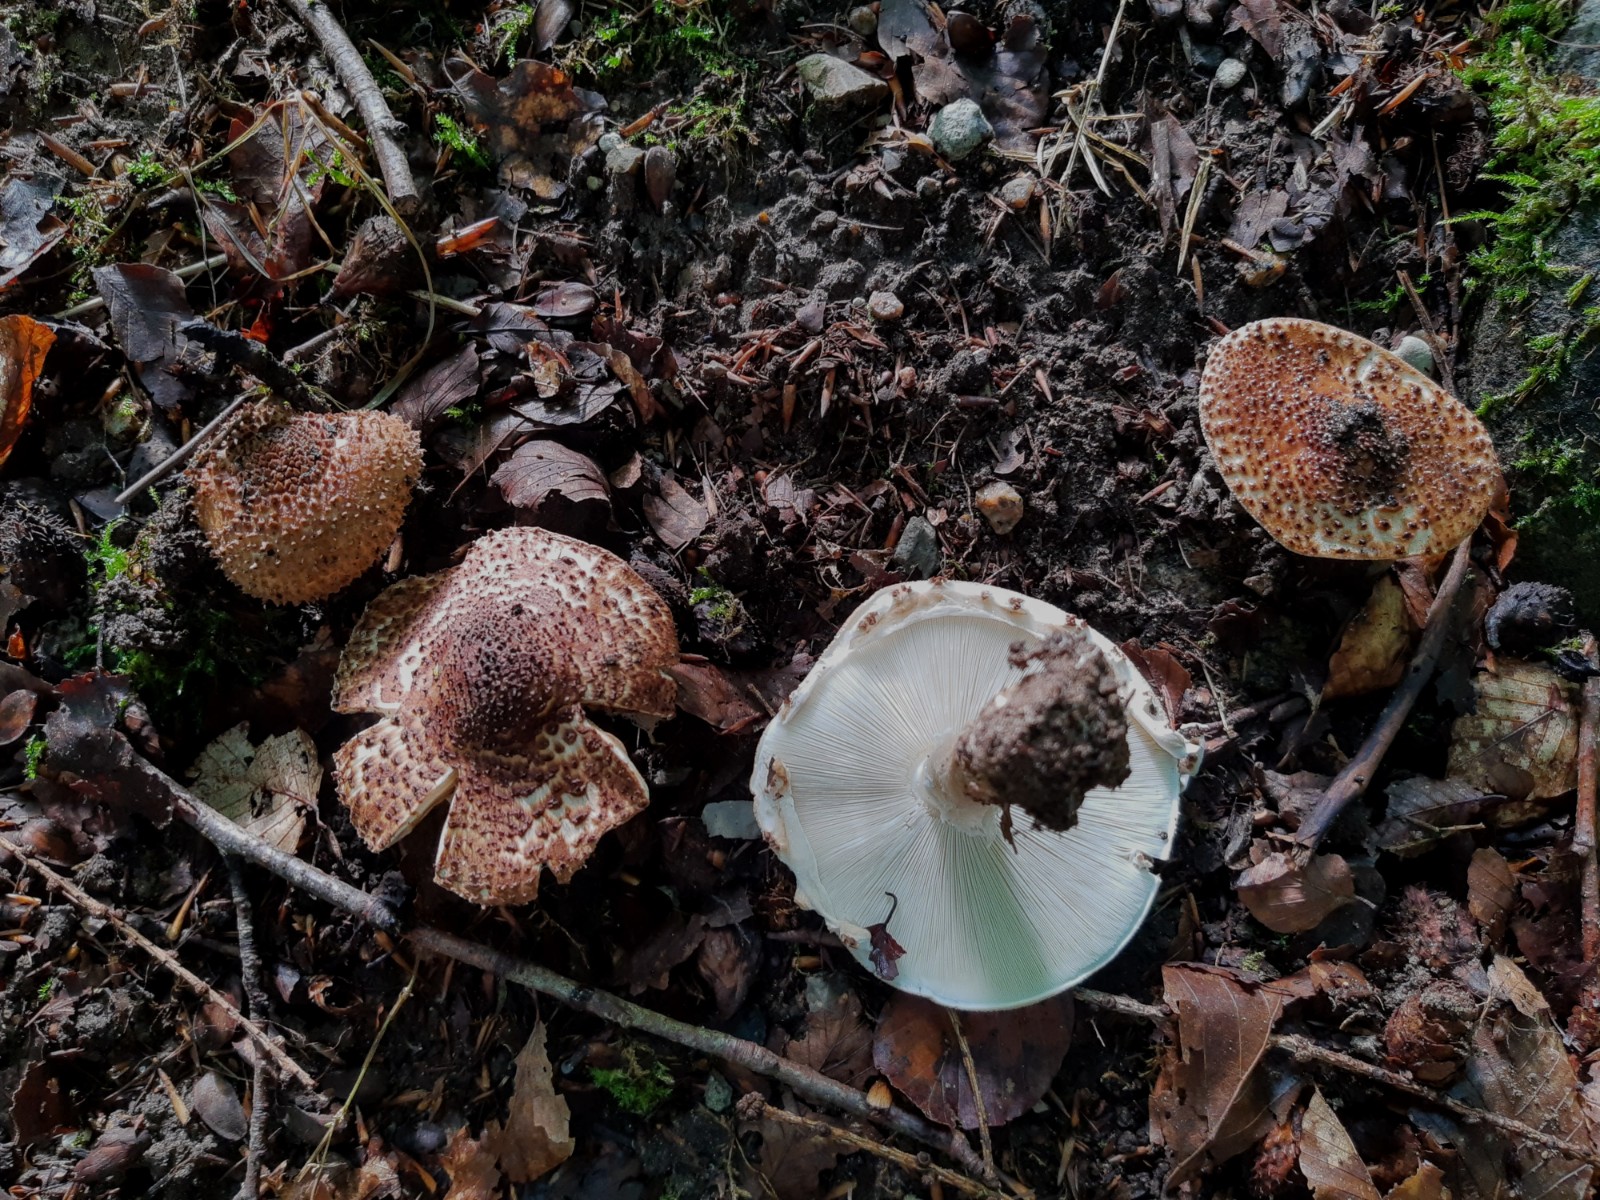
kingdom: Fungi
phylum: Basidiomycota
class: Agaricomycetes
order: Agaricales
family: Agaricaceae
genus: Echinoderma
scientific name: Echinoderma asperum
